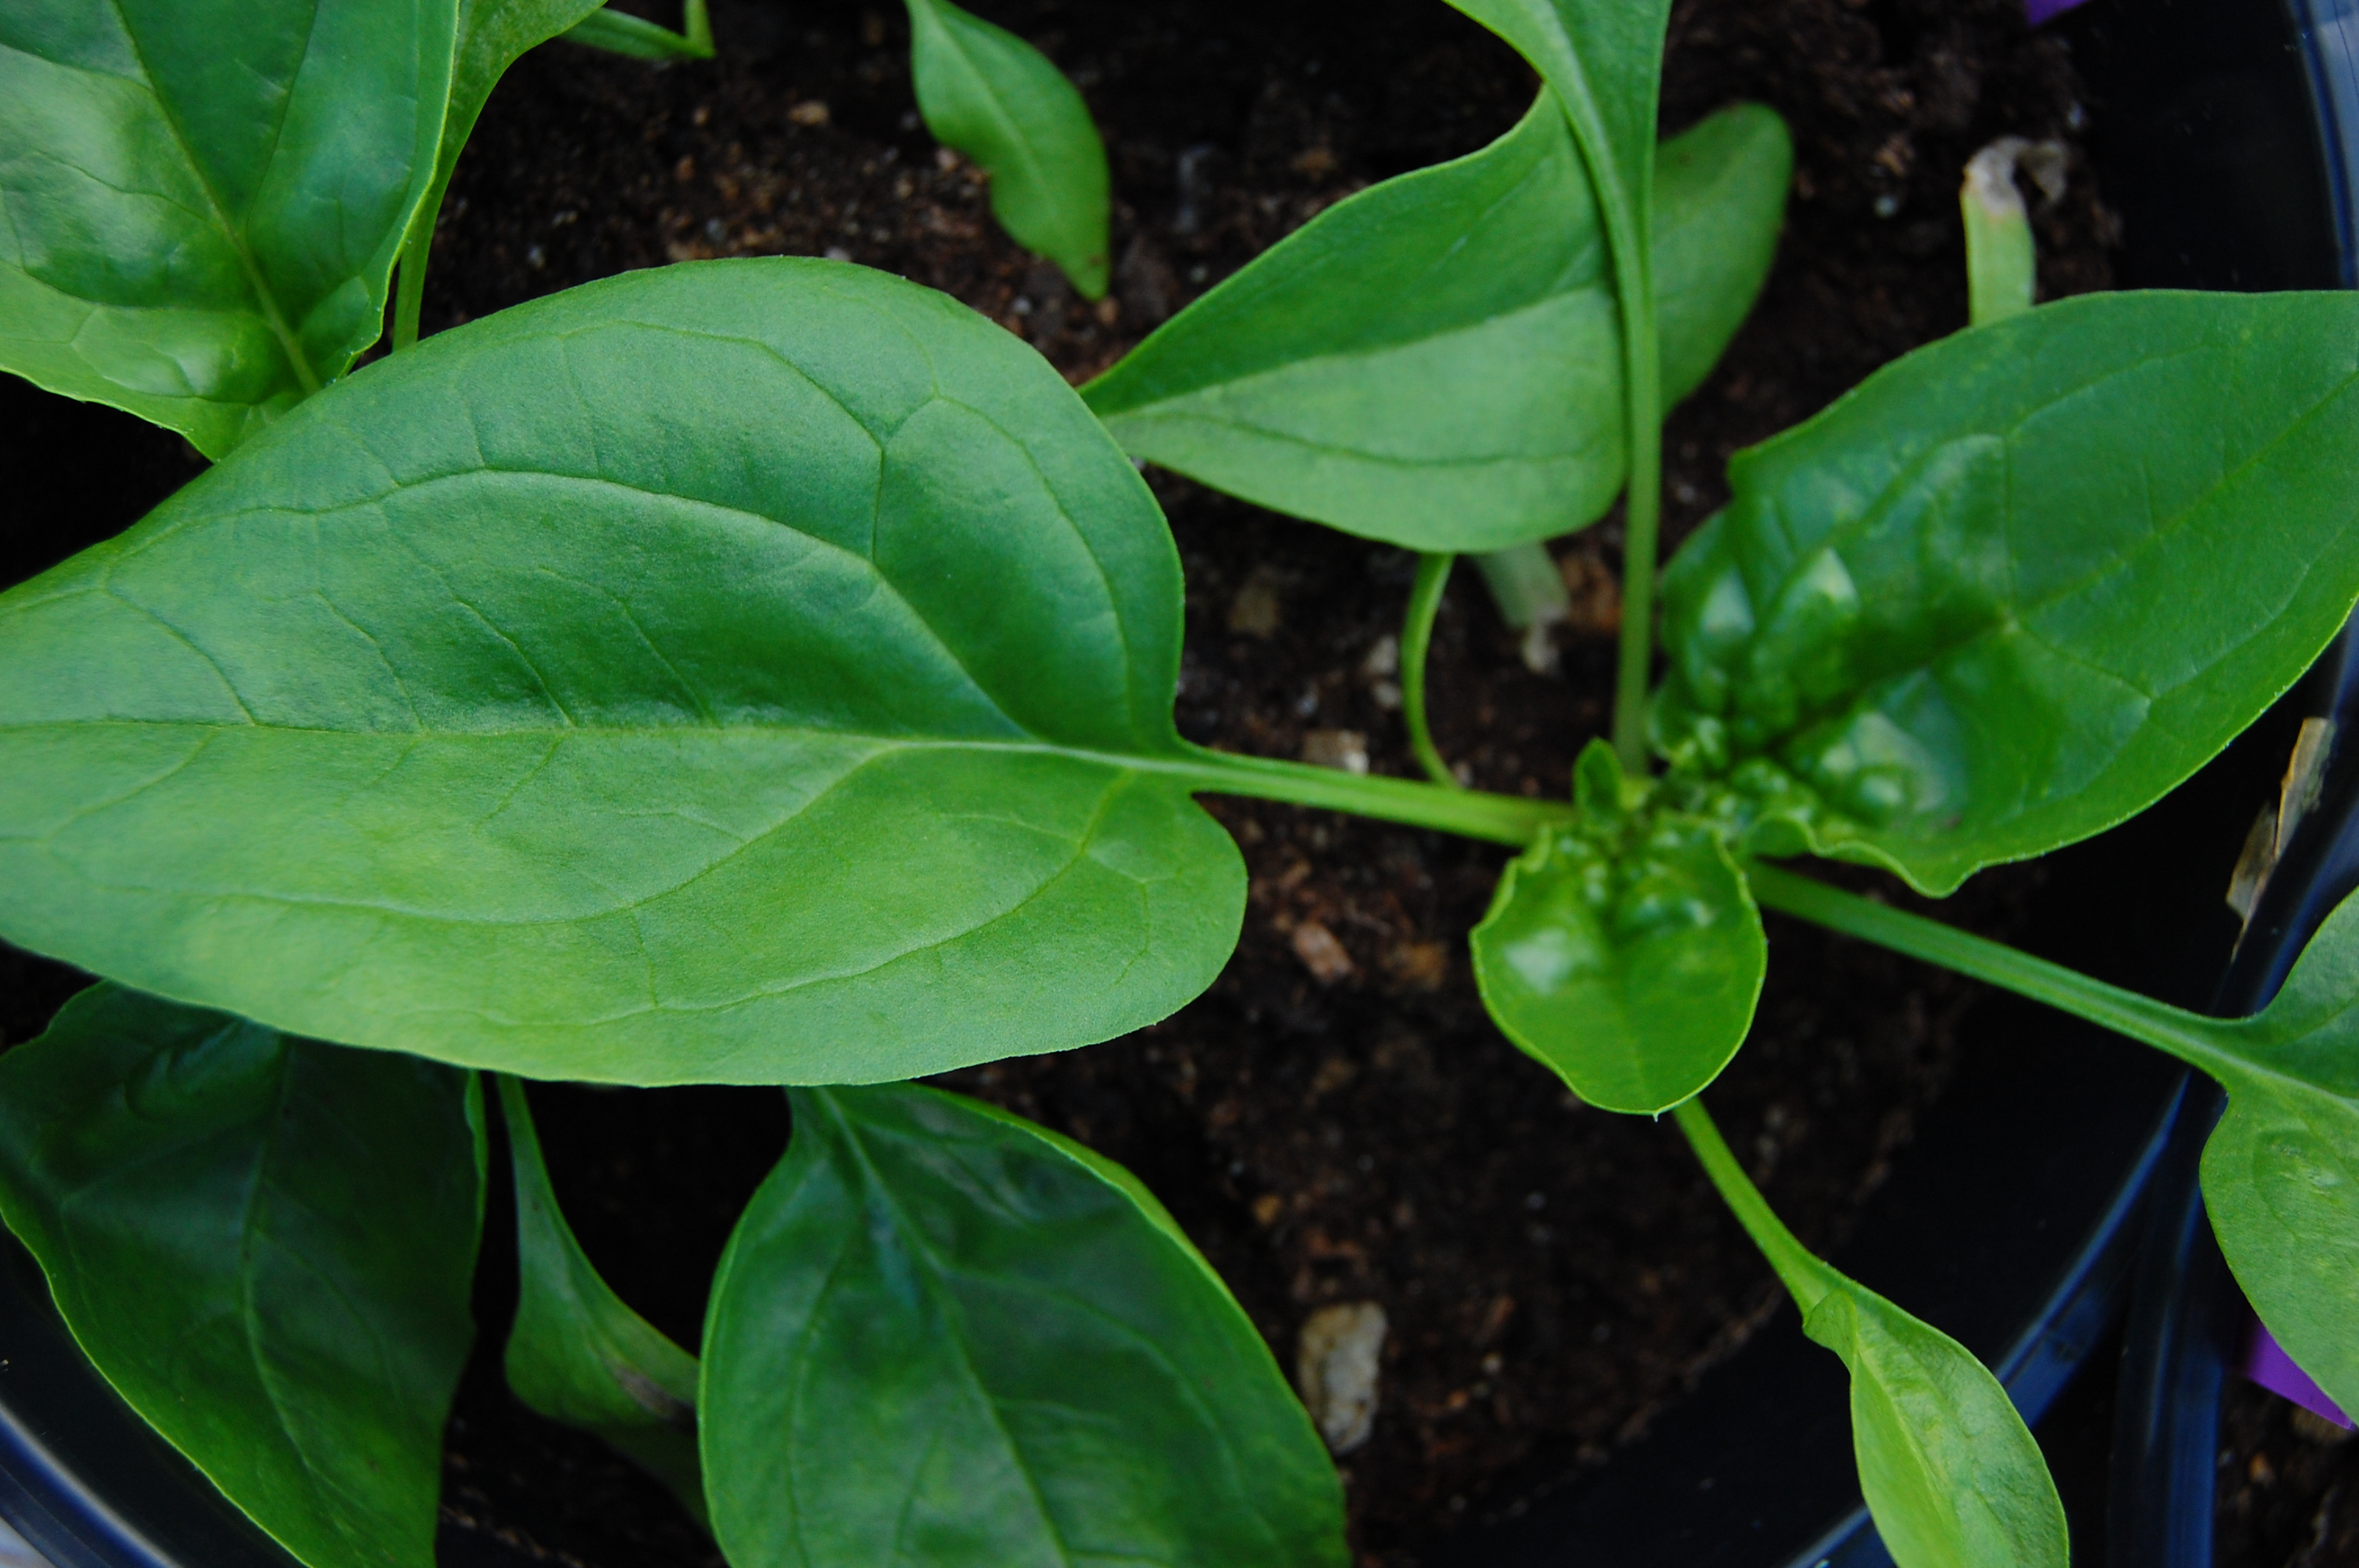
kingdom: Plantae
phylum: Tracheophyta
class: Magnoliopsida
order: Caryophyllales
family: Amaranthaceae
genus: Spinacia
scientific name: Spinacia oleracea
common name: Spinach
